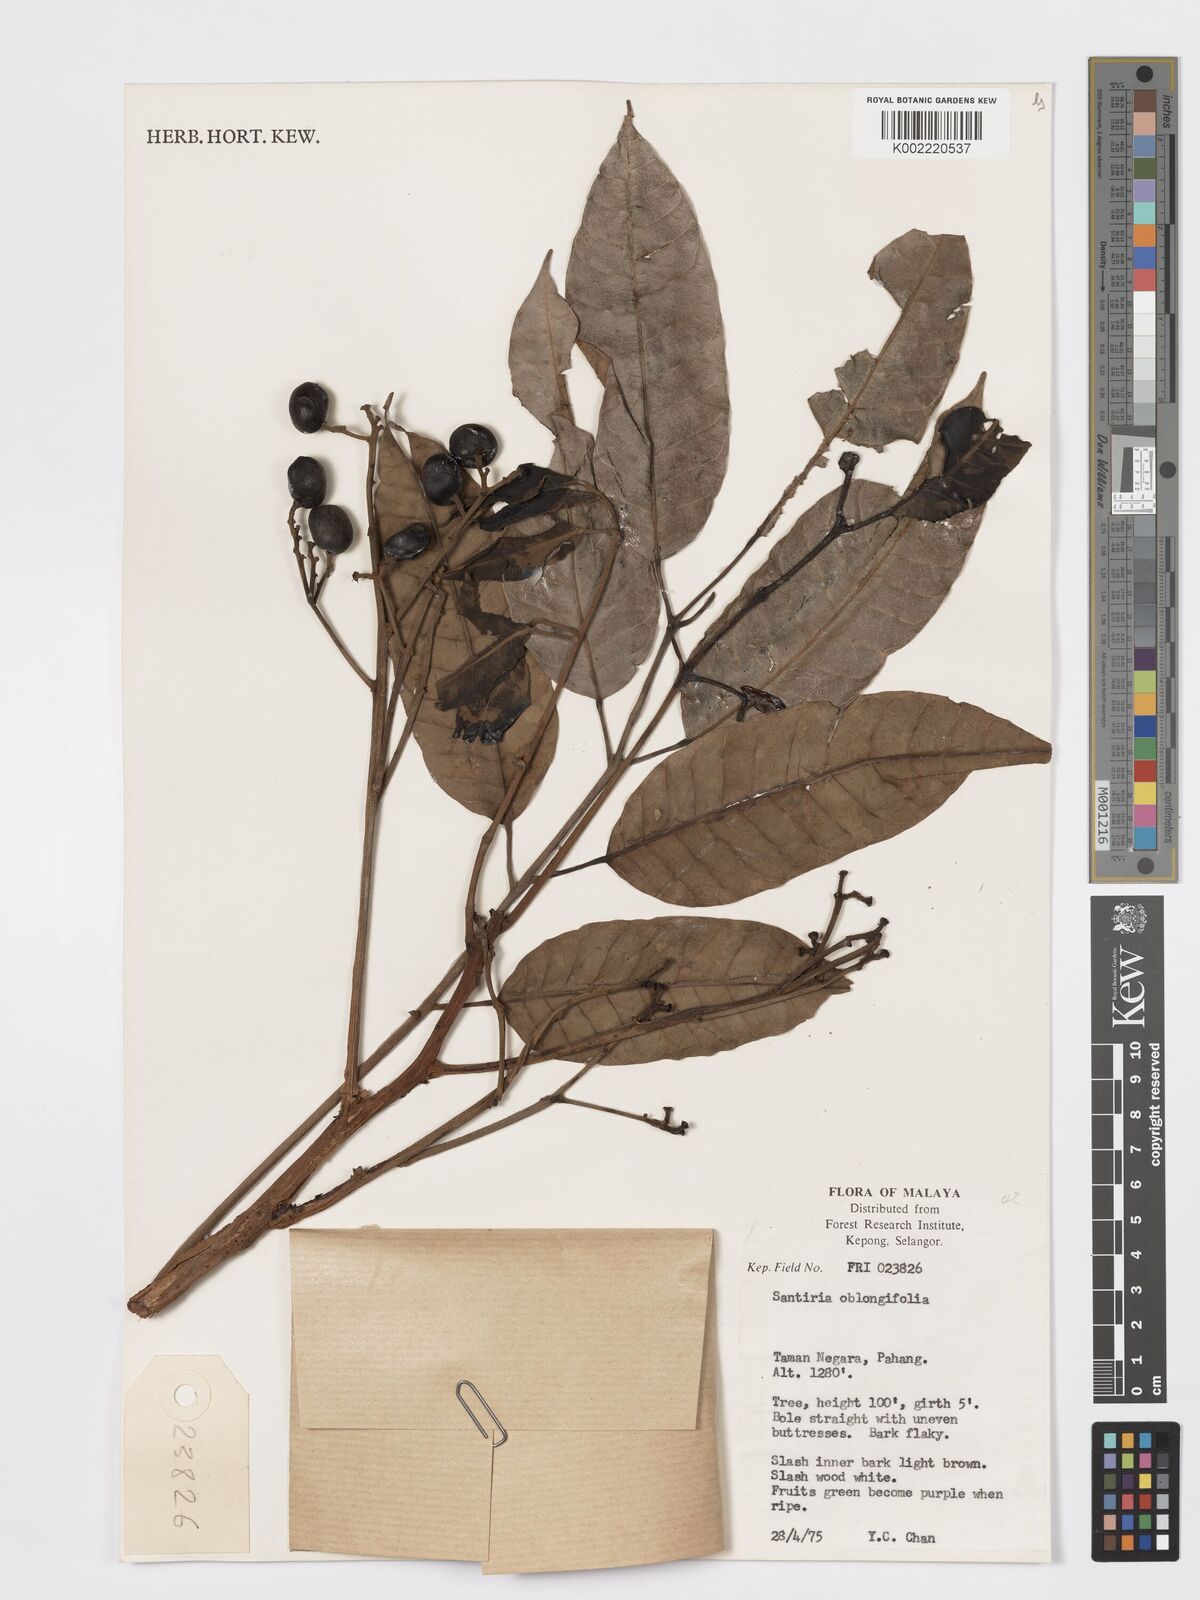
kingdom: Plantae
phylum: Tracheophyta
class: Magnoliopsida
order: Sapindales
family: Burseraceae
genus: Santiria
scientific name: Santiria oblongifolia
